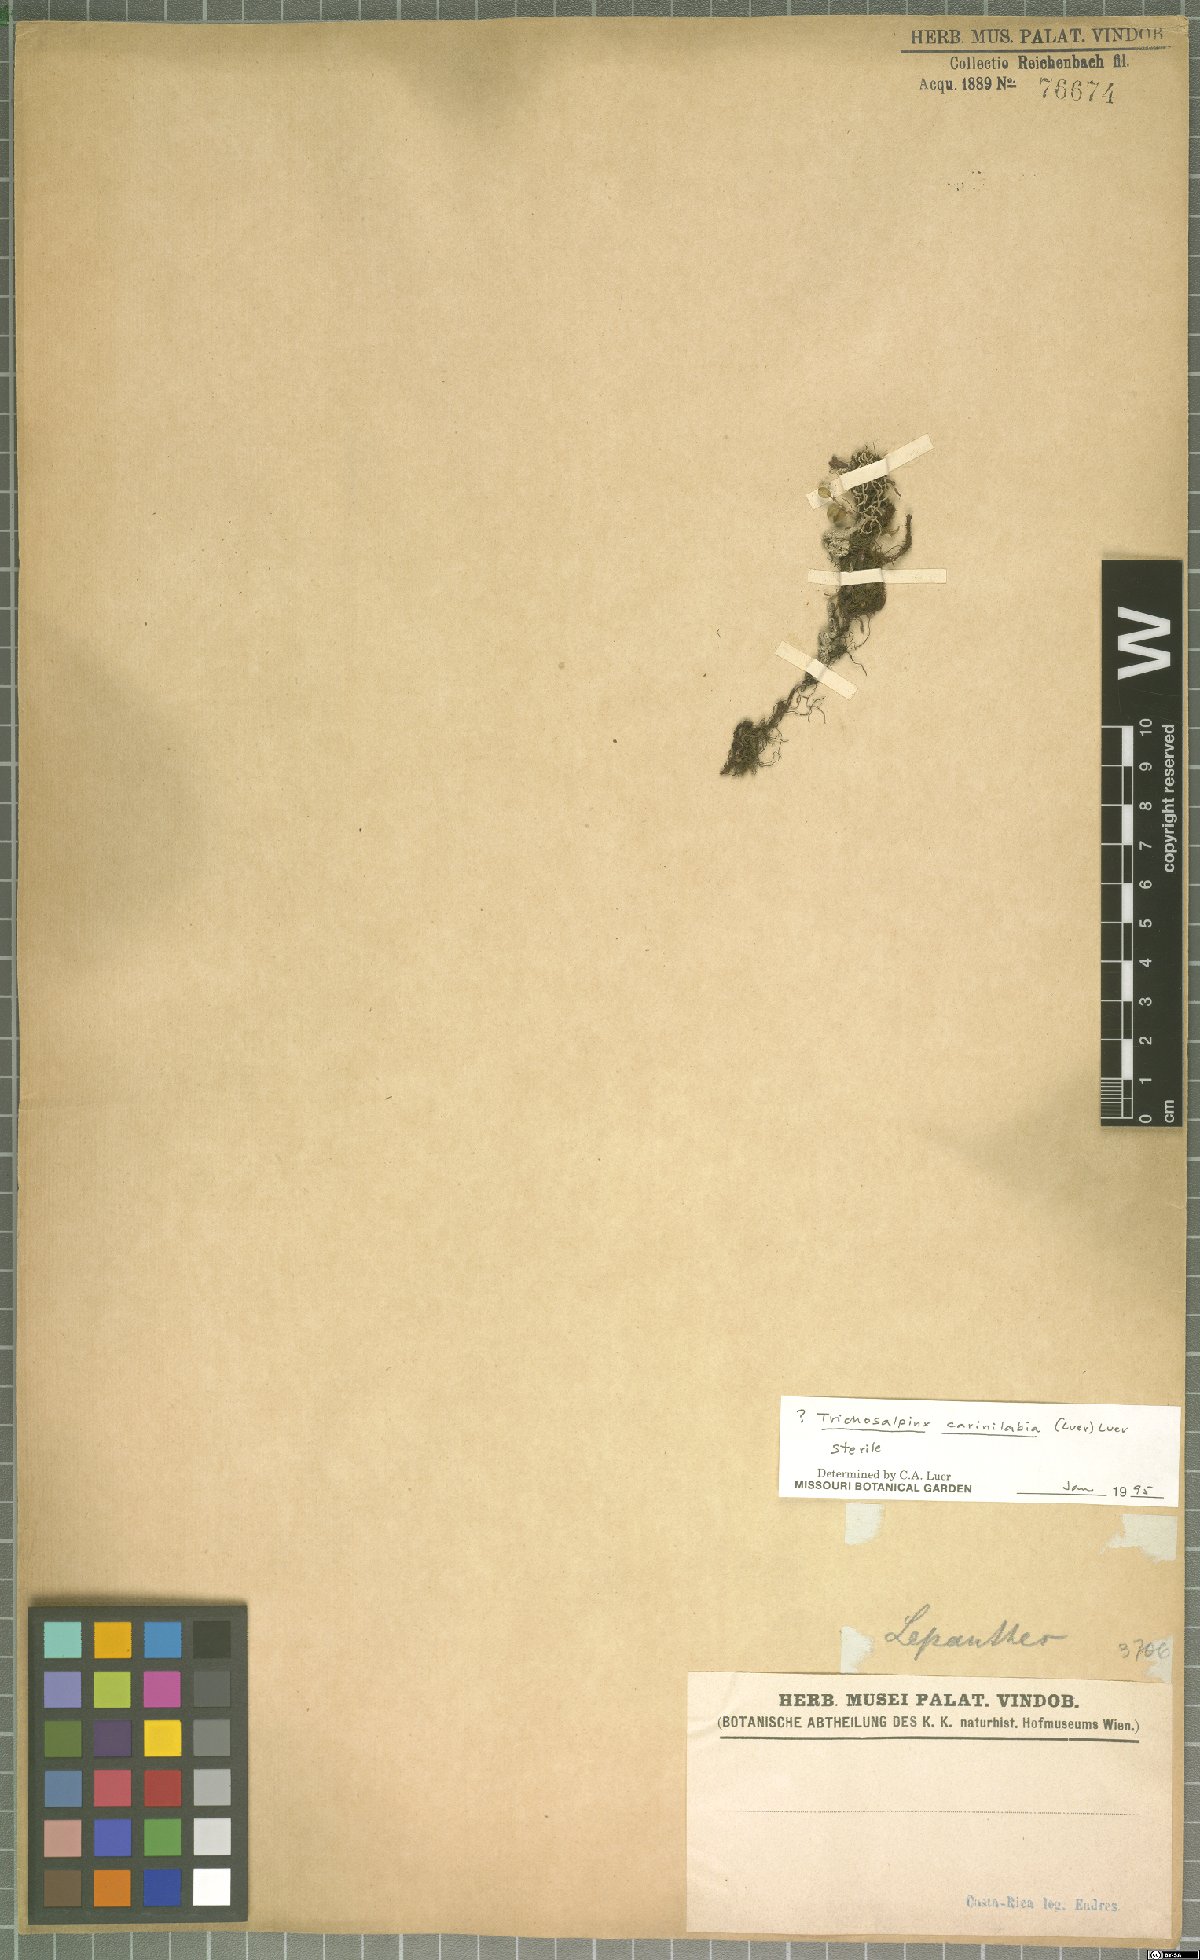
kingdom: Plantae
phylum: Tracheophyta
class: Liliopsida
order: Asparagales
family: Orchidaceae
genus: Trichosalpinx
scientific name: Trichosalpinx carinilabia
